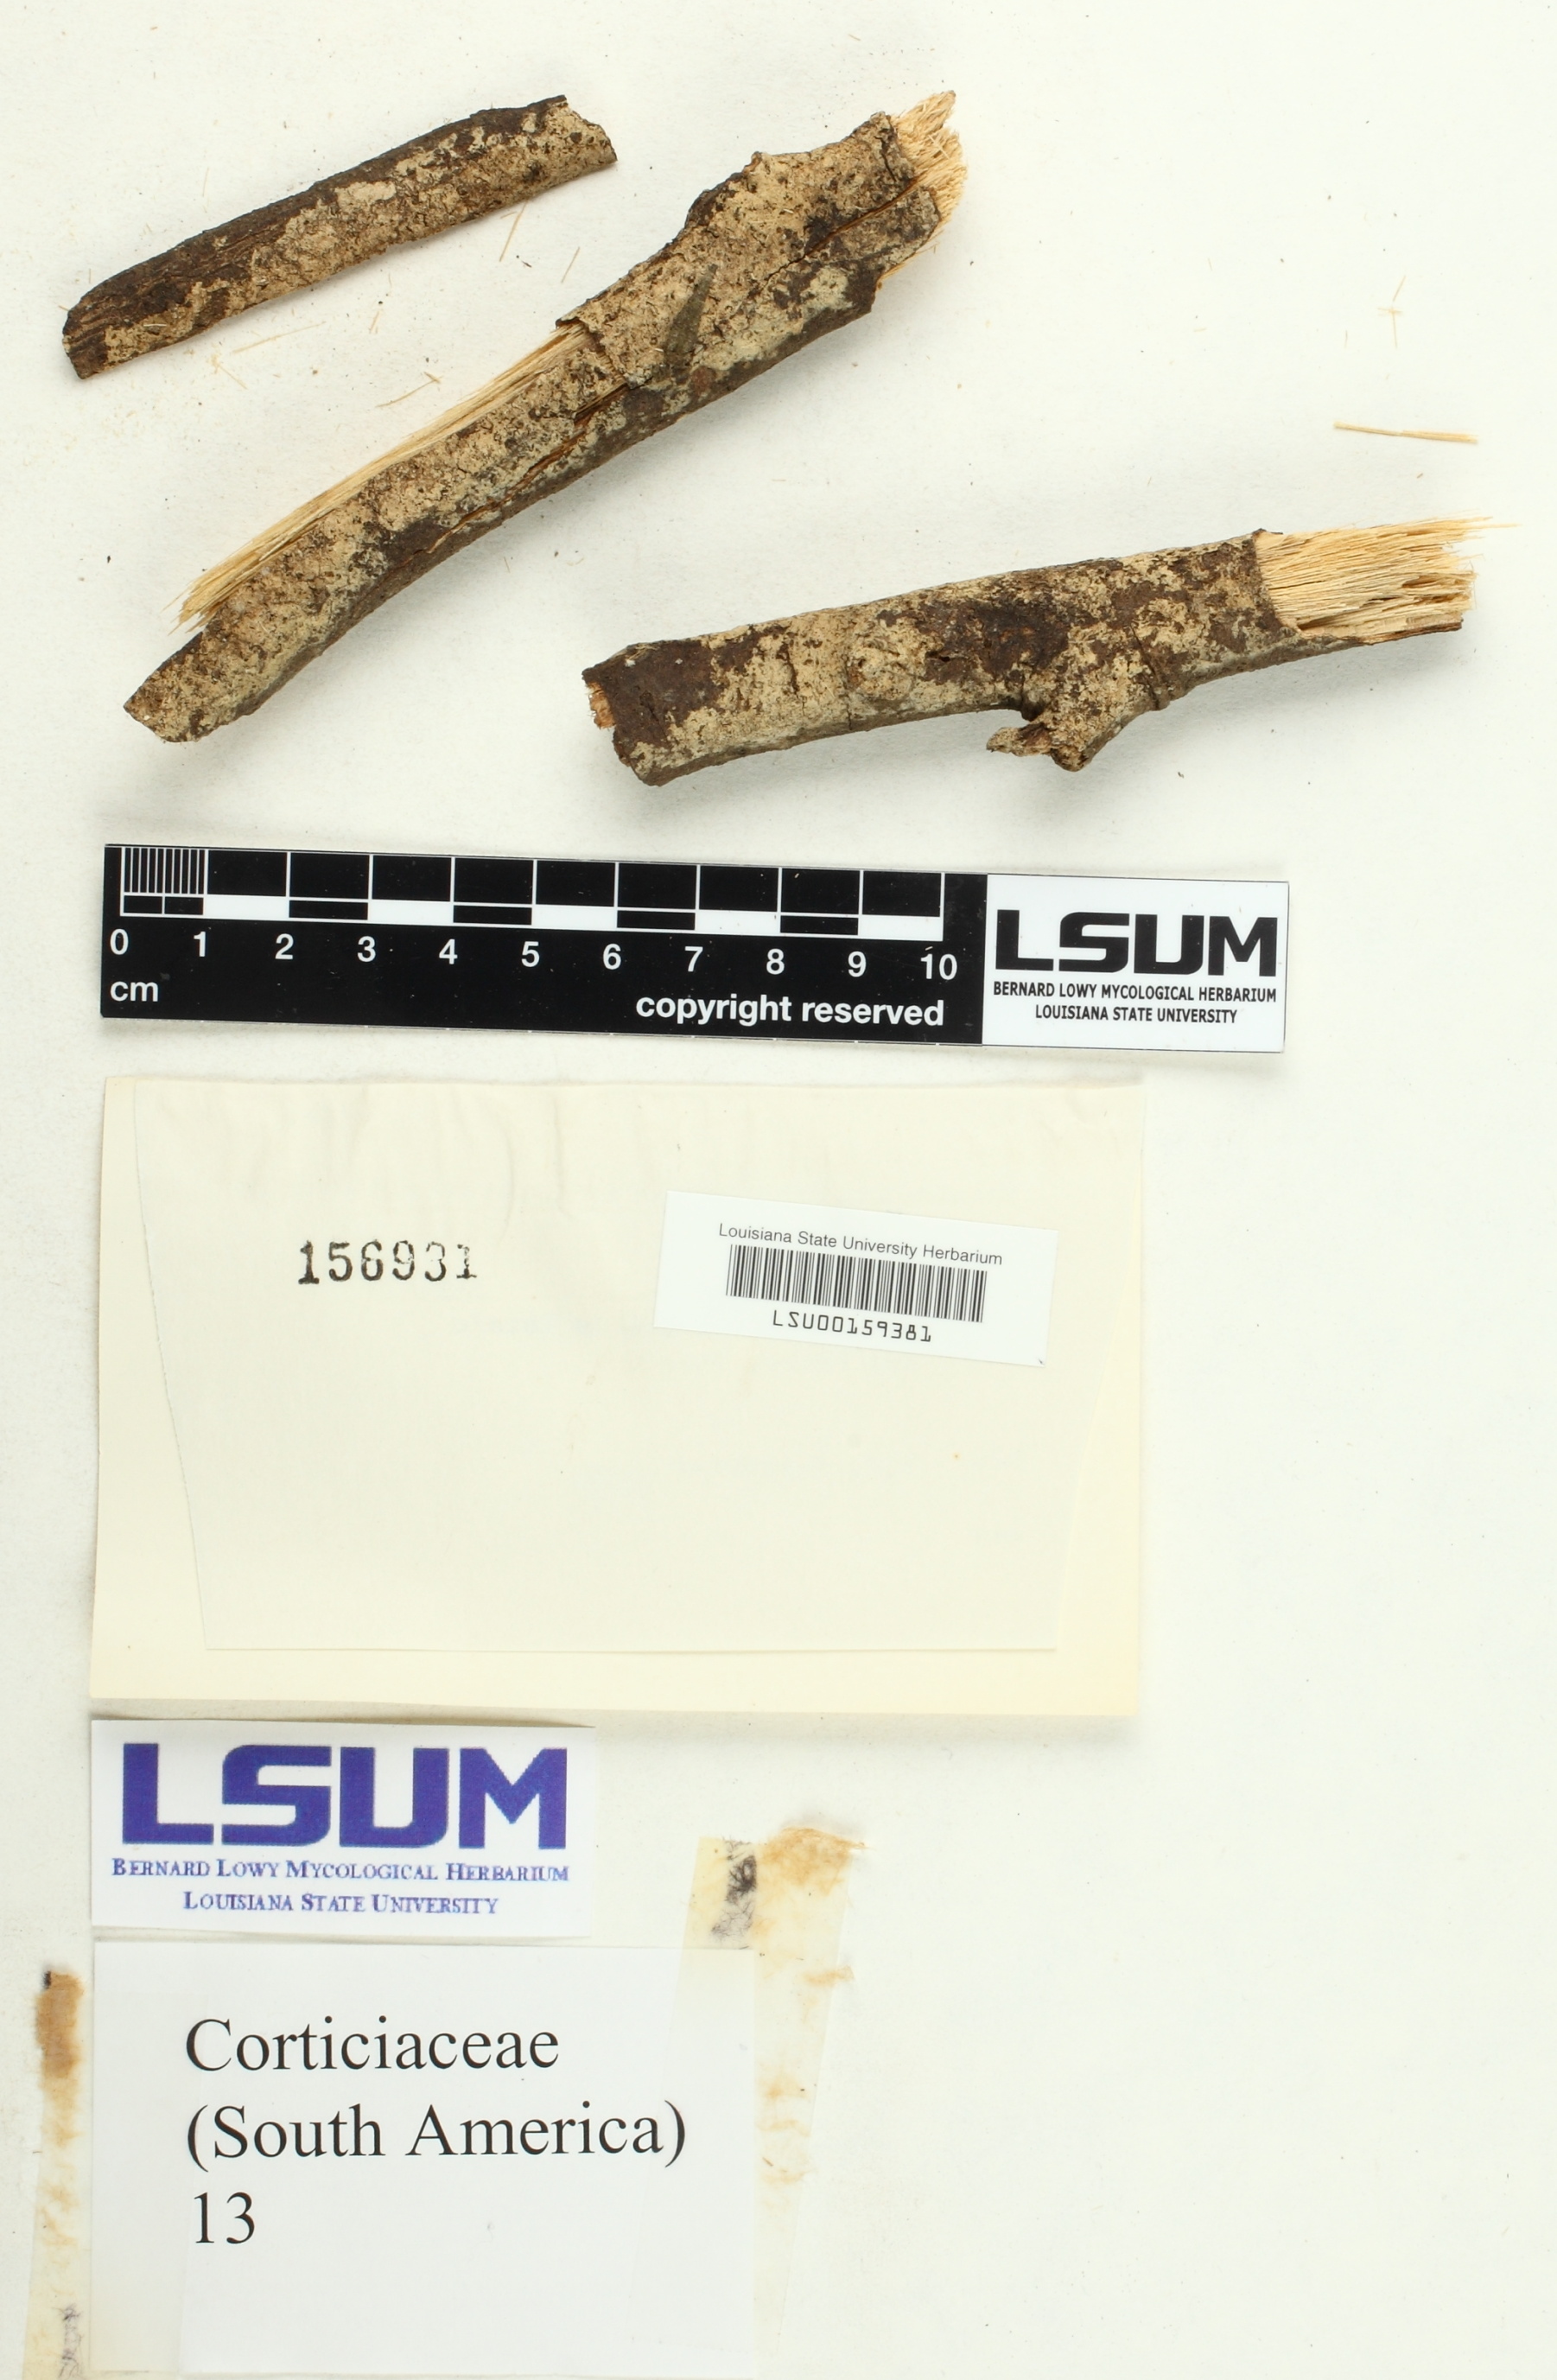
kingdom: Fungi
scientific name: Fungi
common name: Fungi
